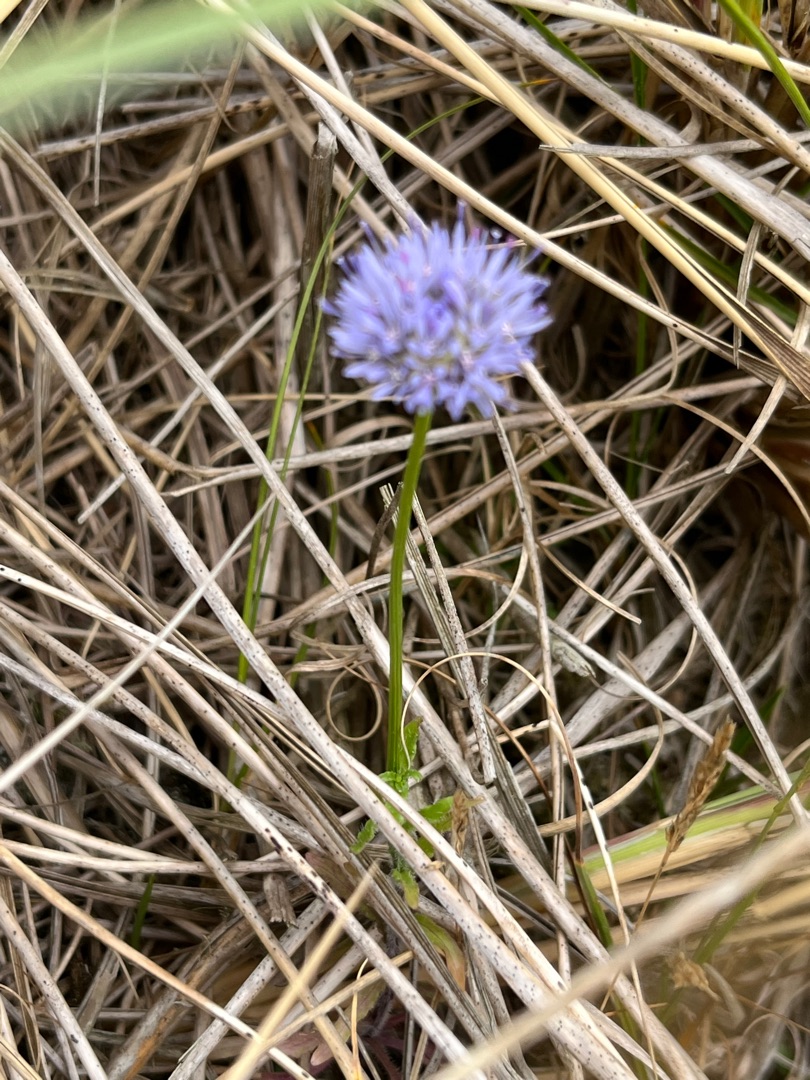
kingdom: Plantae
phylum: Tracheophyta
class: Magnoliopsida
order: Asterales
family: Campanulaceae
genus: Jasione
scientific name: Jasione montana
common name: Blåmunke
